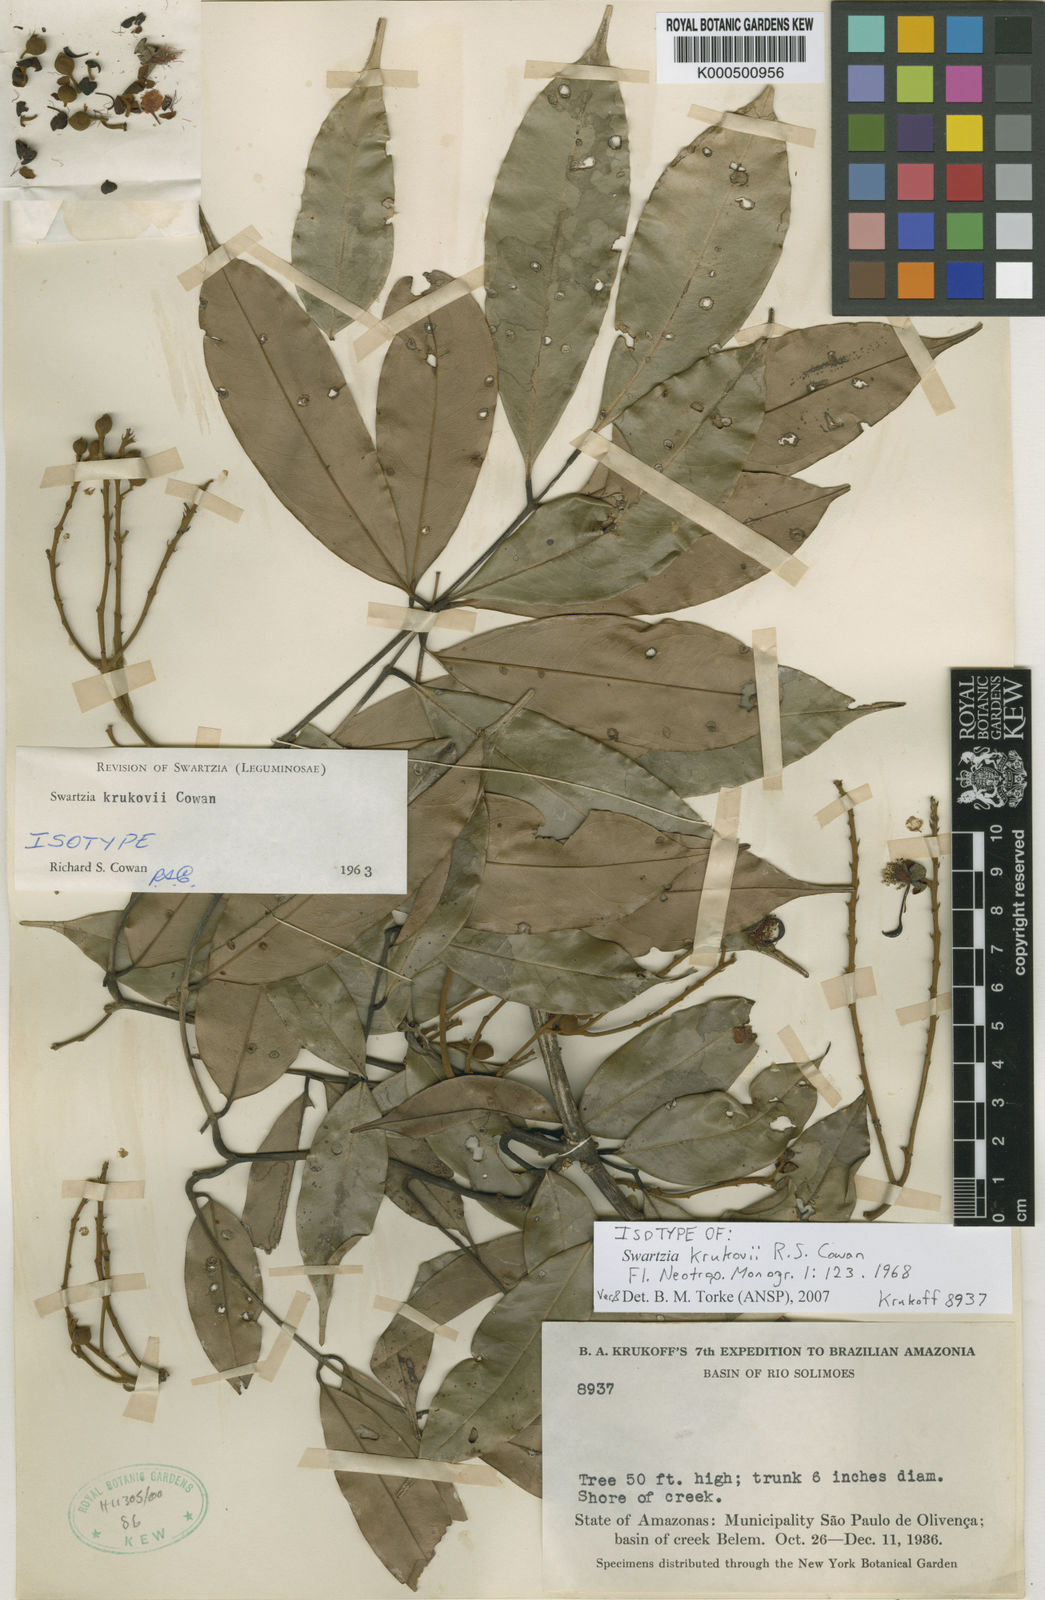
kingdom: Plantae
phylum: Tracheophyta
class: Magnoliopsida
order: Fabales
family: Fabaceae
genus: Swartzia
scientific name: Swartzia krukovii
